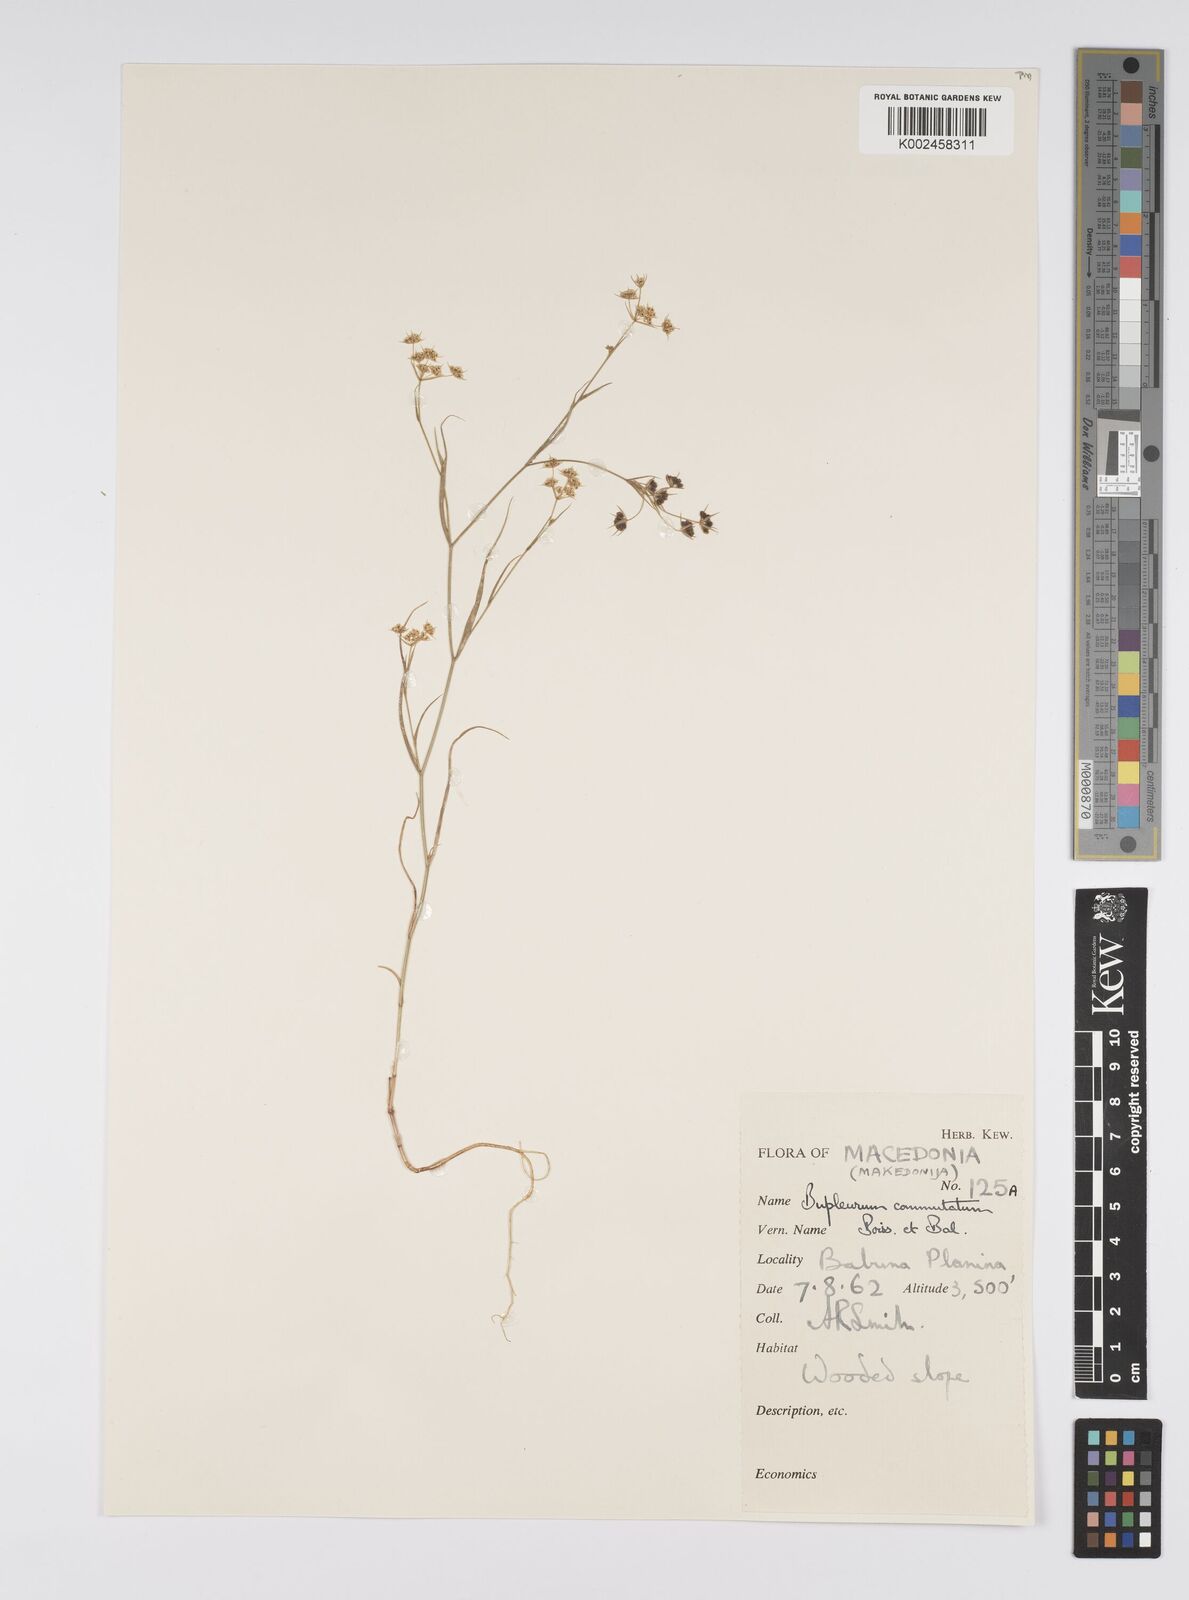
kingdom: Plantae
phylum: Tracheophyta
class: Magnoliopsida
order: Apiales
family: Apiaceae
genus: Bupleurum
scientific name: Bupleurum commutatum
